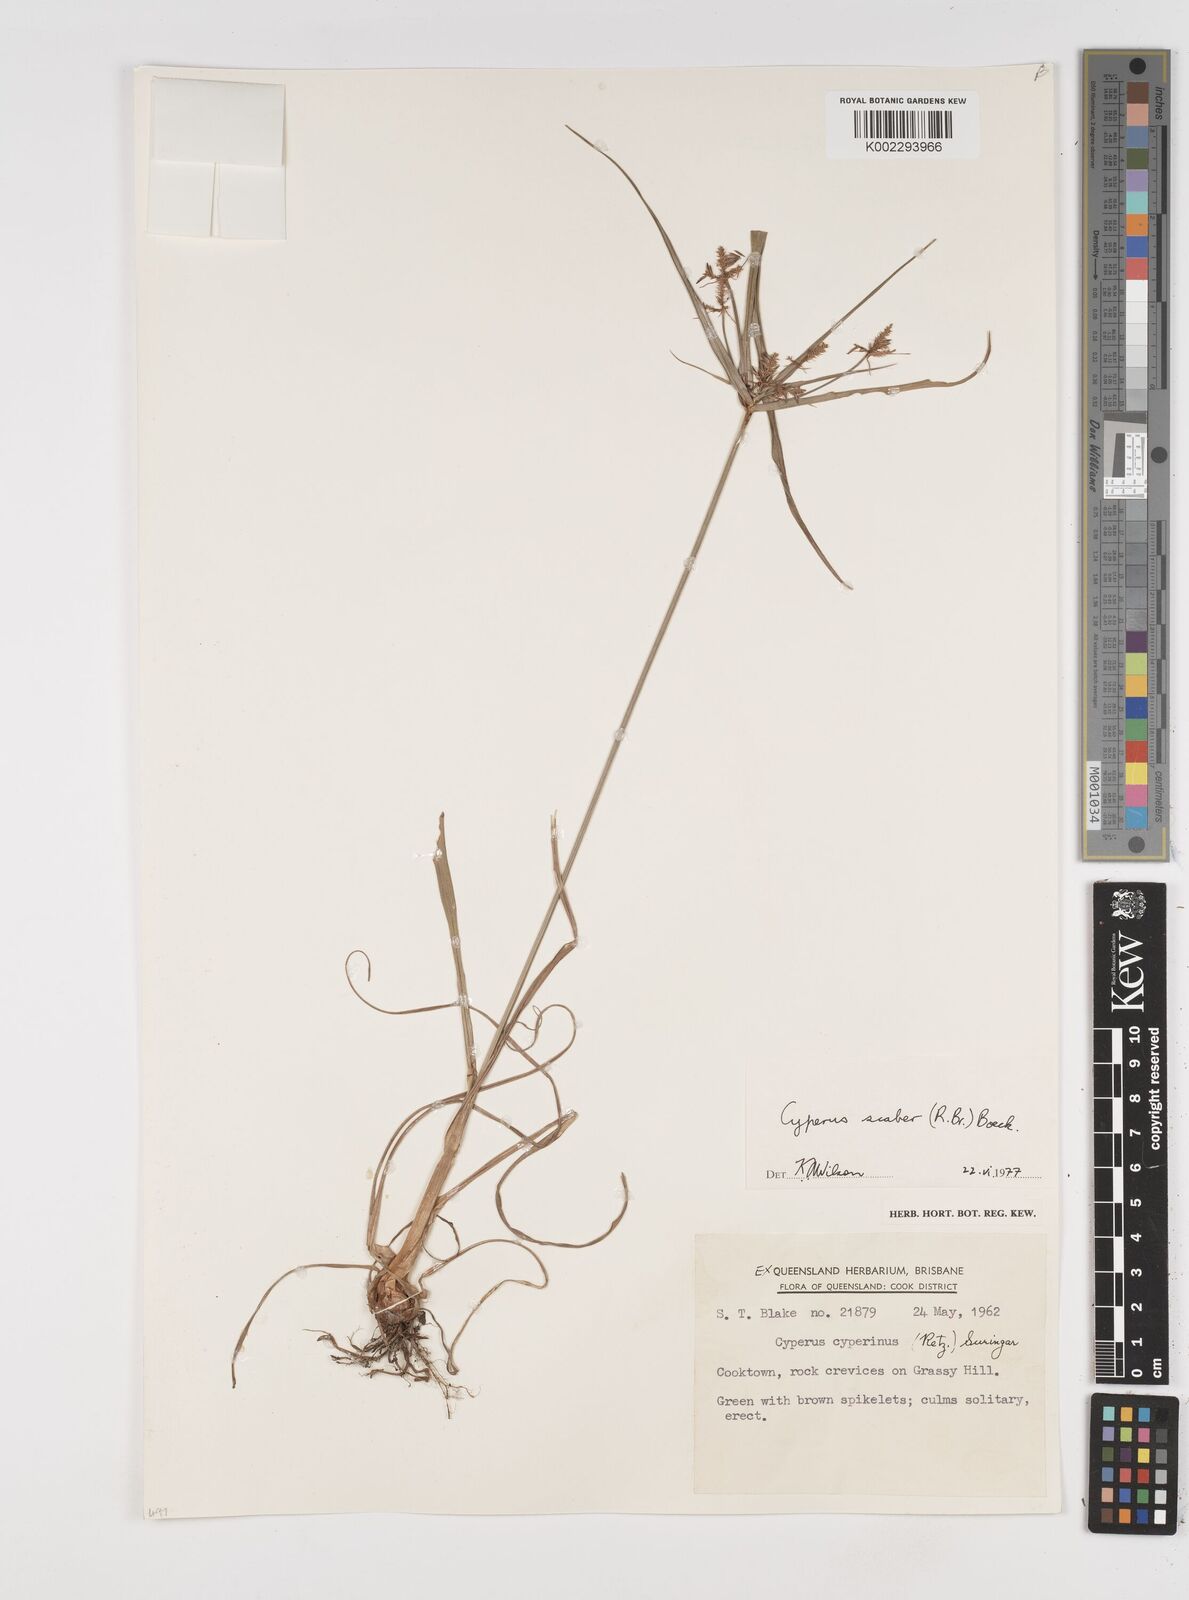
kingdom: Plantae
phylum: Tracheophyta
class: Liliopsida
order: Poales
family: Cyperaceae
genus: Cyperus
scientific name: Cyperus scaber
